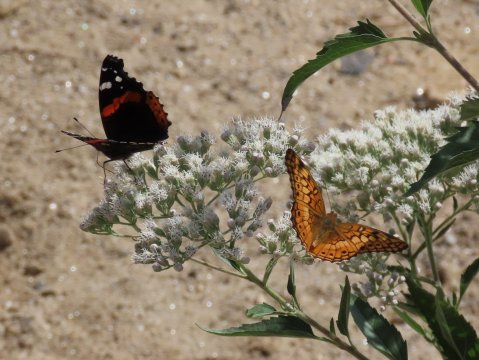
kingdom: Animalia
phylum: Arthropoda
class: Insecta
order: Lepidoptera
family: Nymphalidae
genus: Euptoieta
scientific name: Euptoieta claudia
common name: Variegated Fritillary
